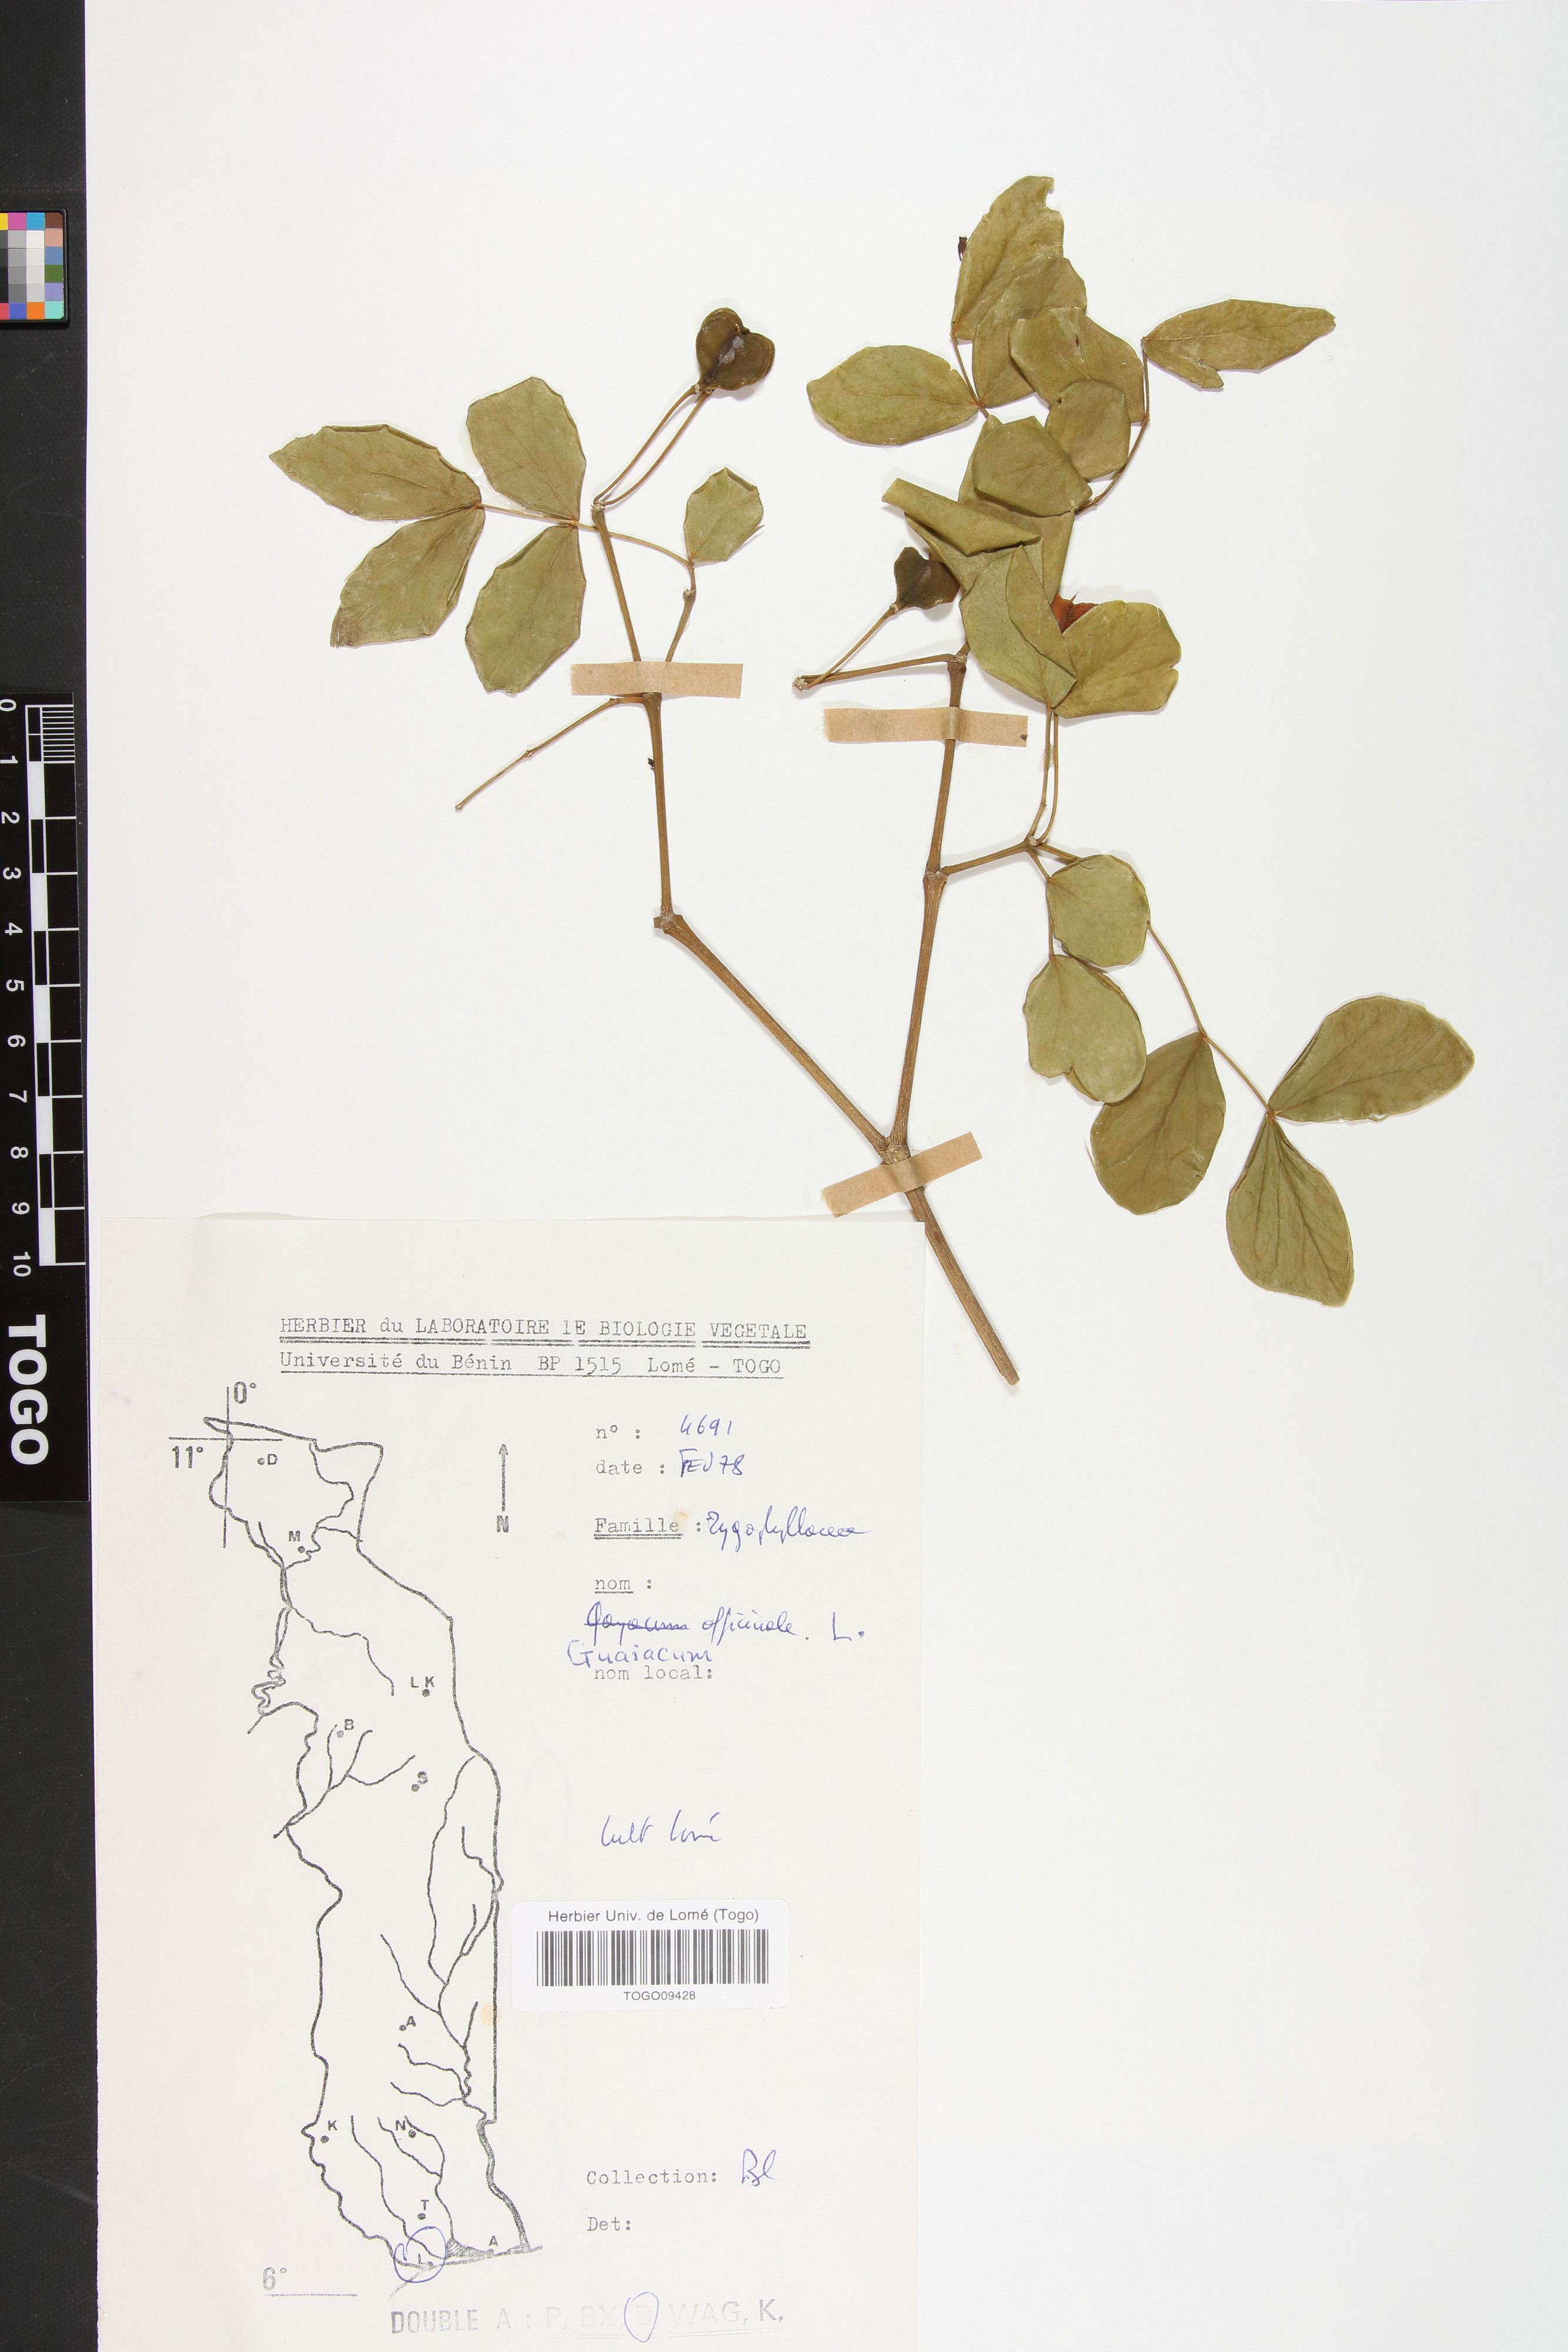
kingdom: Plantae
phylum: Tracheophyta
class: Magnoliopsida
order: Zygophyllales
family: Zygophyllaceae
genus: Guaiacum
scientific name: Guaiacum officinale
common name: Lignum vitae
